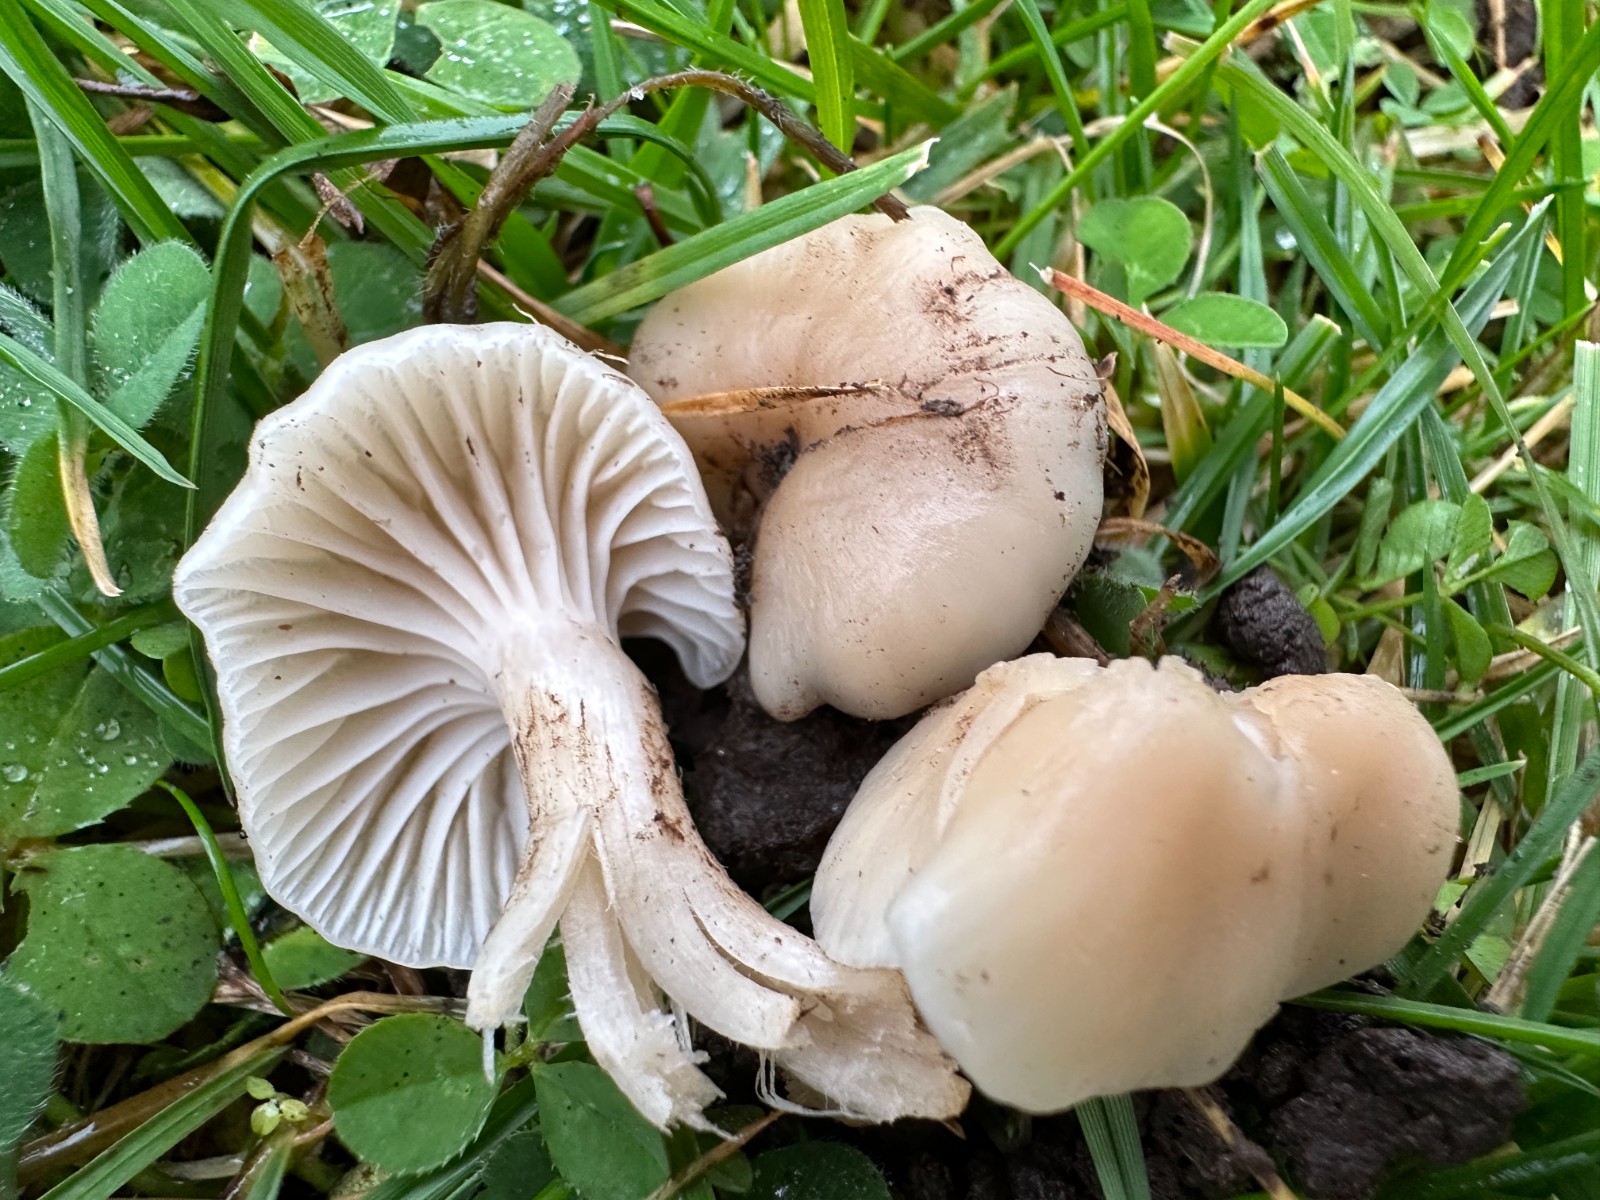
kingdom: Fungi
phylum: Basidiomycota
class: Agaricomycetes
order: Agaricales
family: Hygrophoraceae
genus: Cuphophyllus
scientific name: Cuphophyllus virgineus
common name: isabella-vokshat
